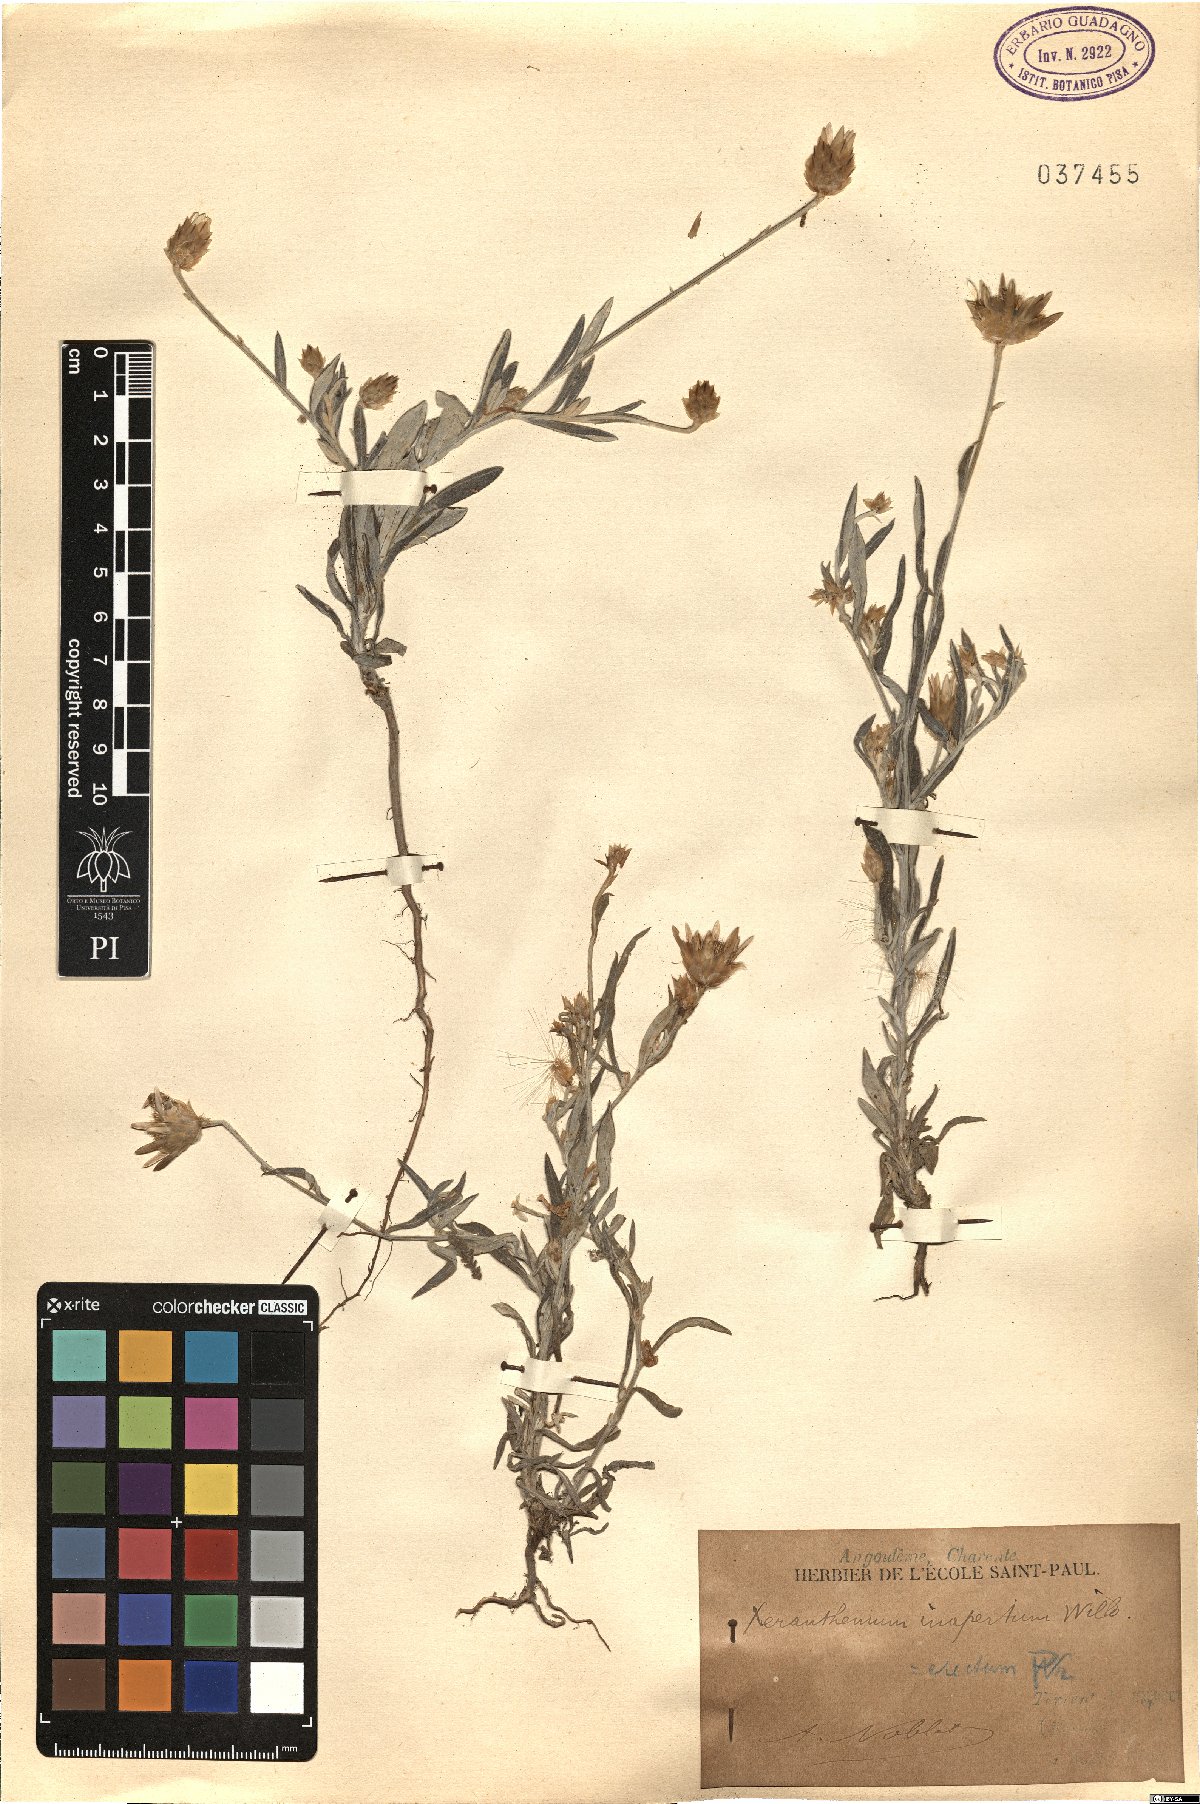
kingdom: Plantae
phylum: Tracheophyta
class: Magnoliopsida
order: Asterales
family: Asteraceae
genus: Xeranthemum
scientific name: Xeranthemum inapertum
